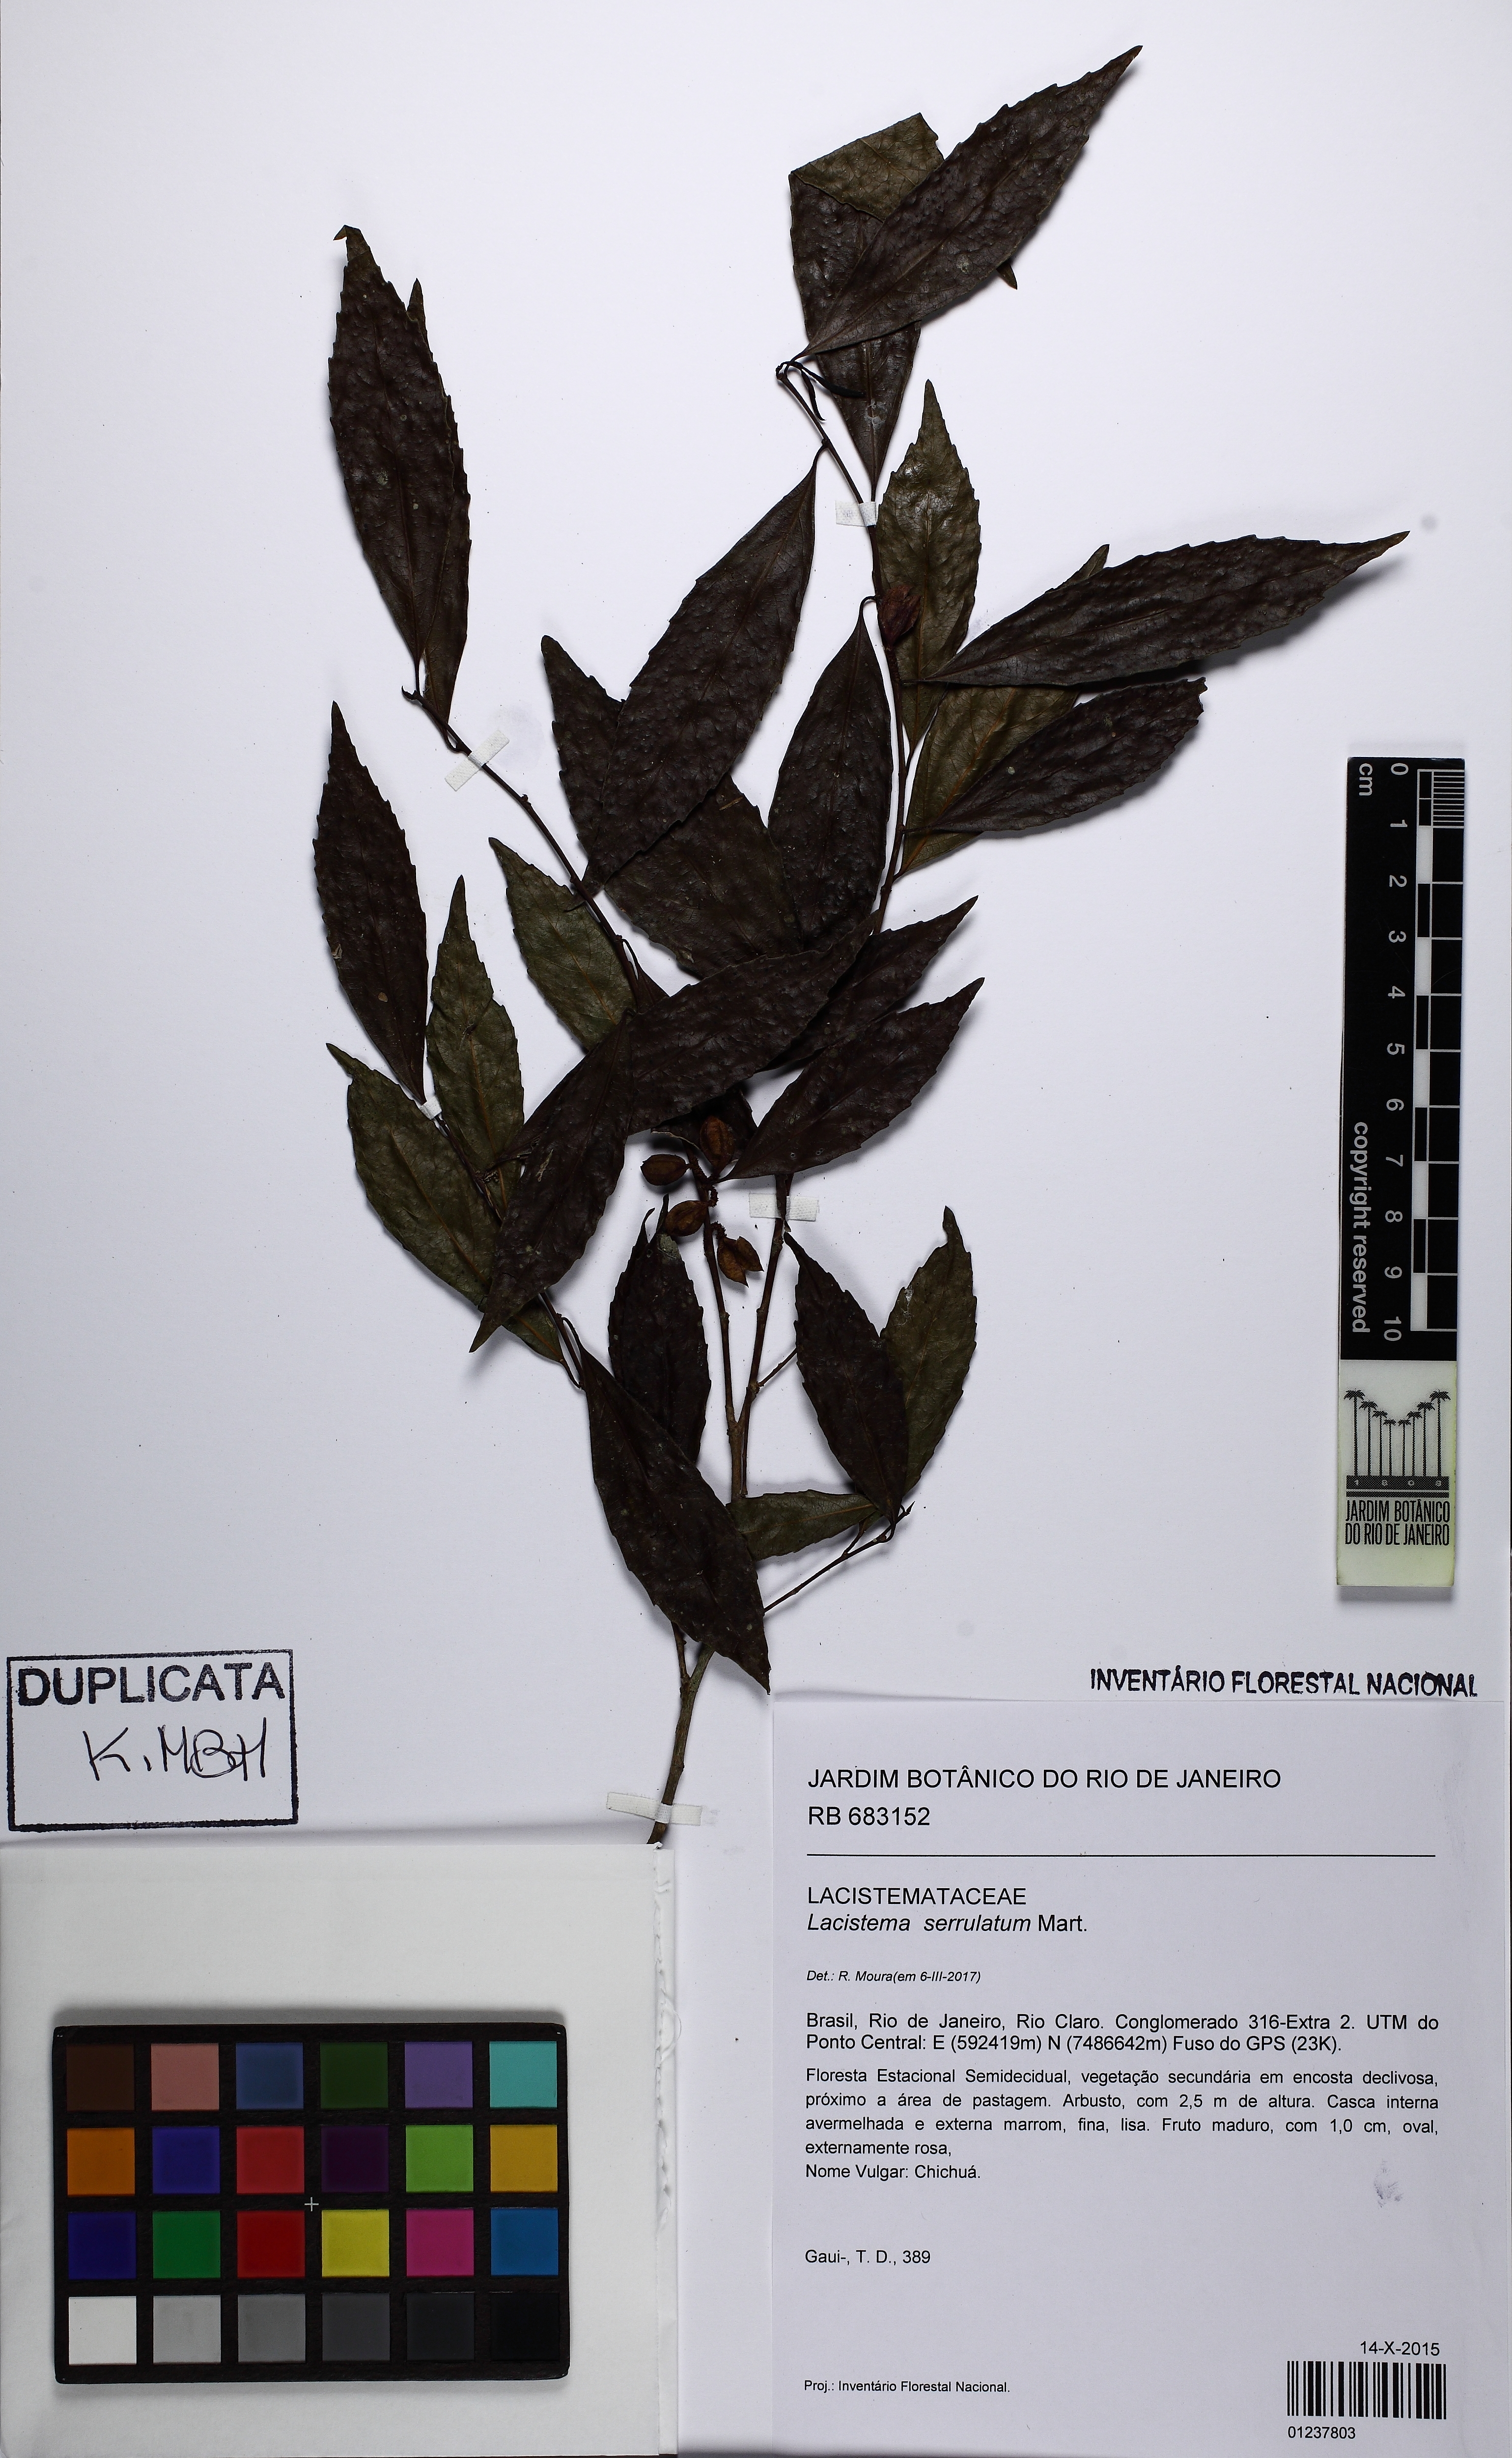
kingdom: Plantae
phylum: Tracheophyta
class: Magnoliopsida
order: Malpighiales
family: Lacistemataceae
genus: Lacistema
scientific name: Lacistema serrulatum
